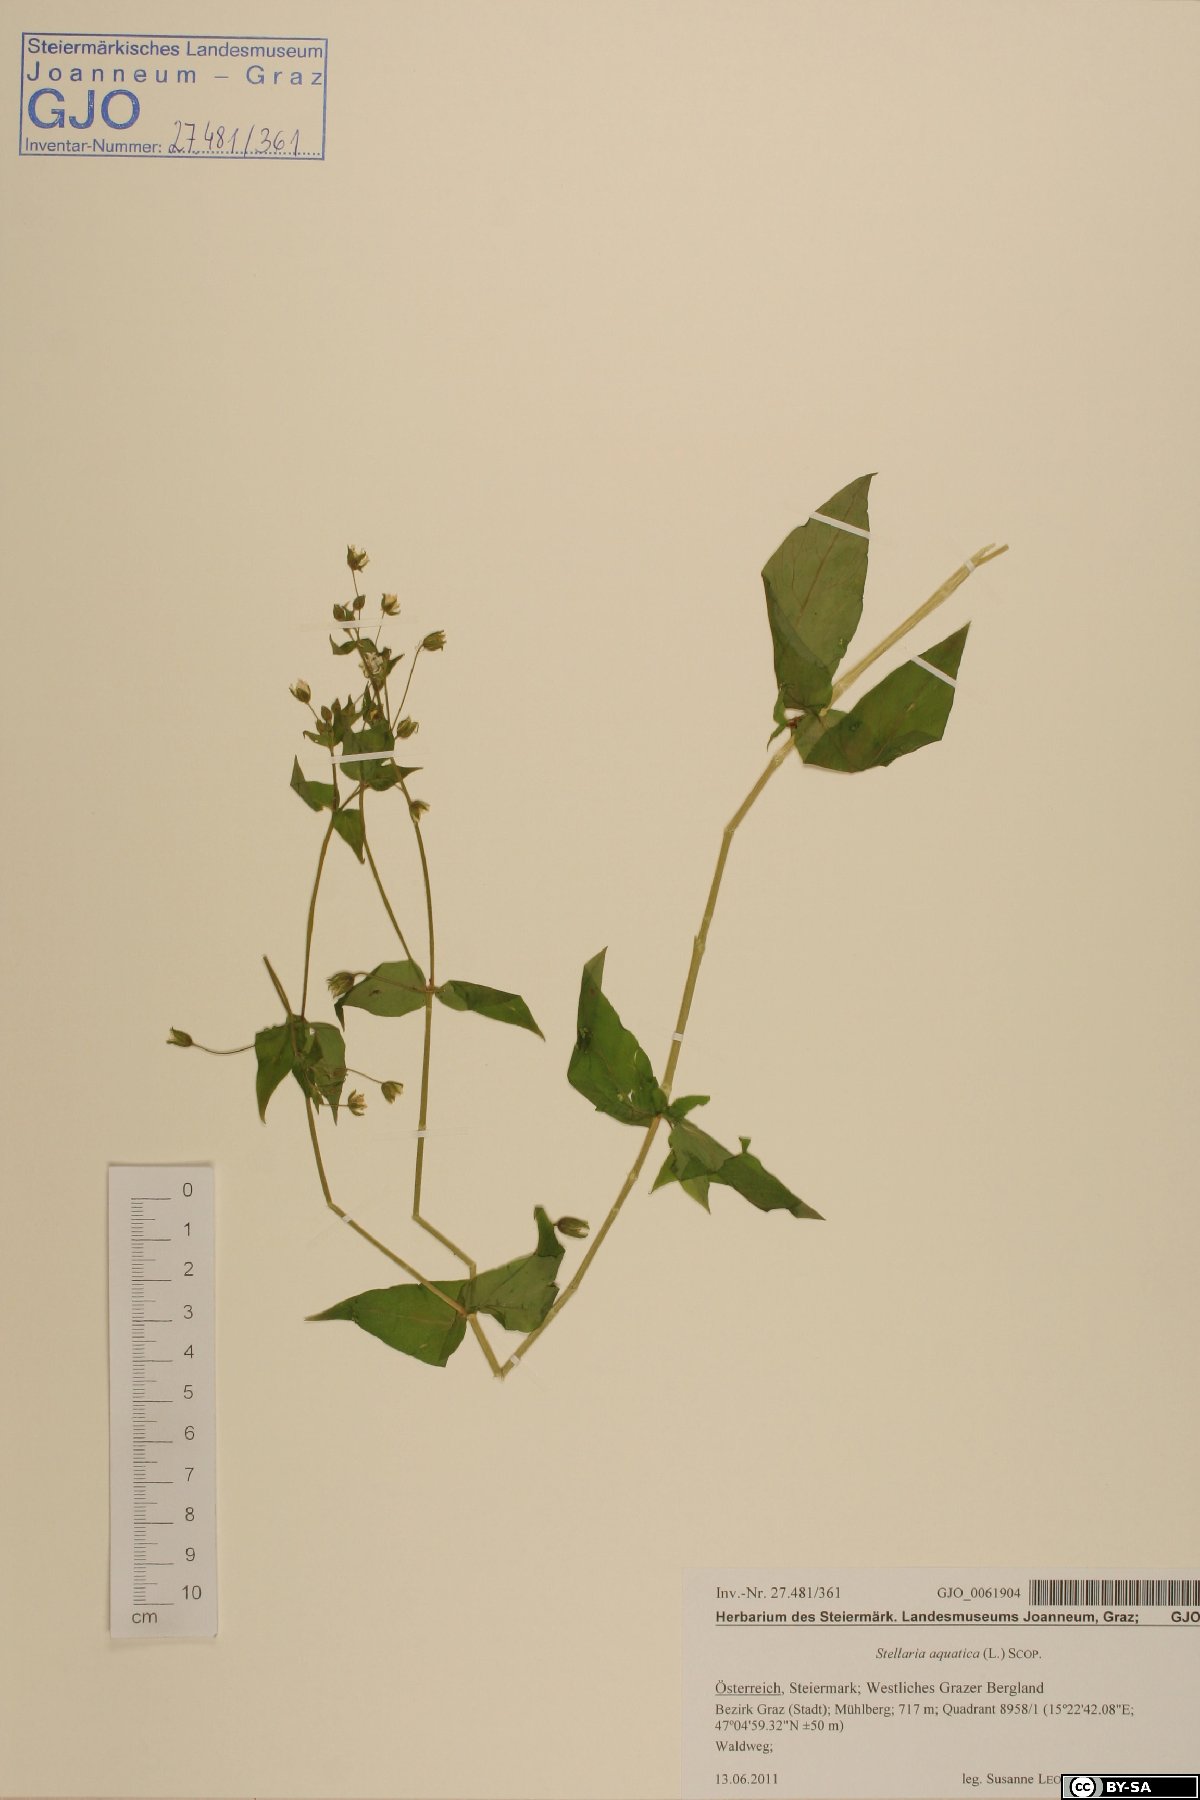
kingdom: Plantae
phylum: Tracheophyta
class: Magnoliopsida
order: Caryophyllales
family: Caryophyllaceae
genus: Stellaria
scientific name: Stellaria aquatica
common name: Water chickweed
